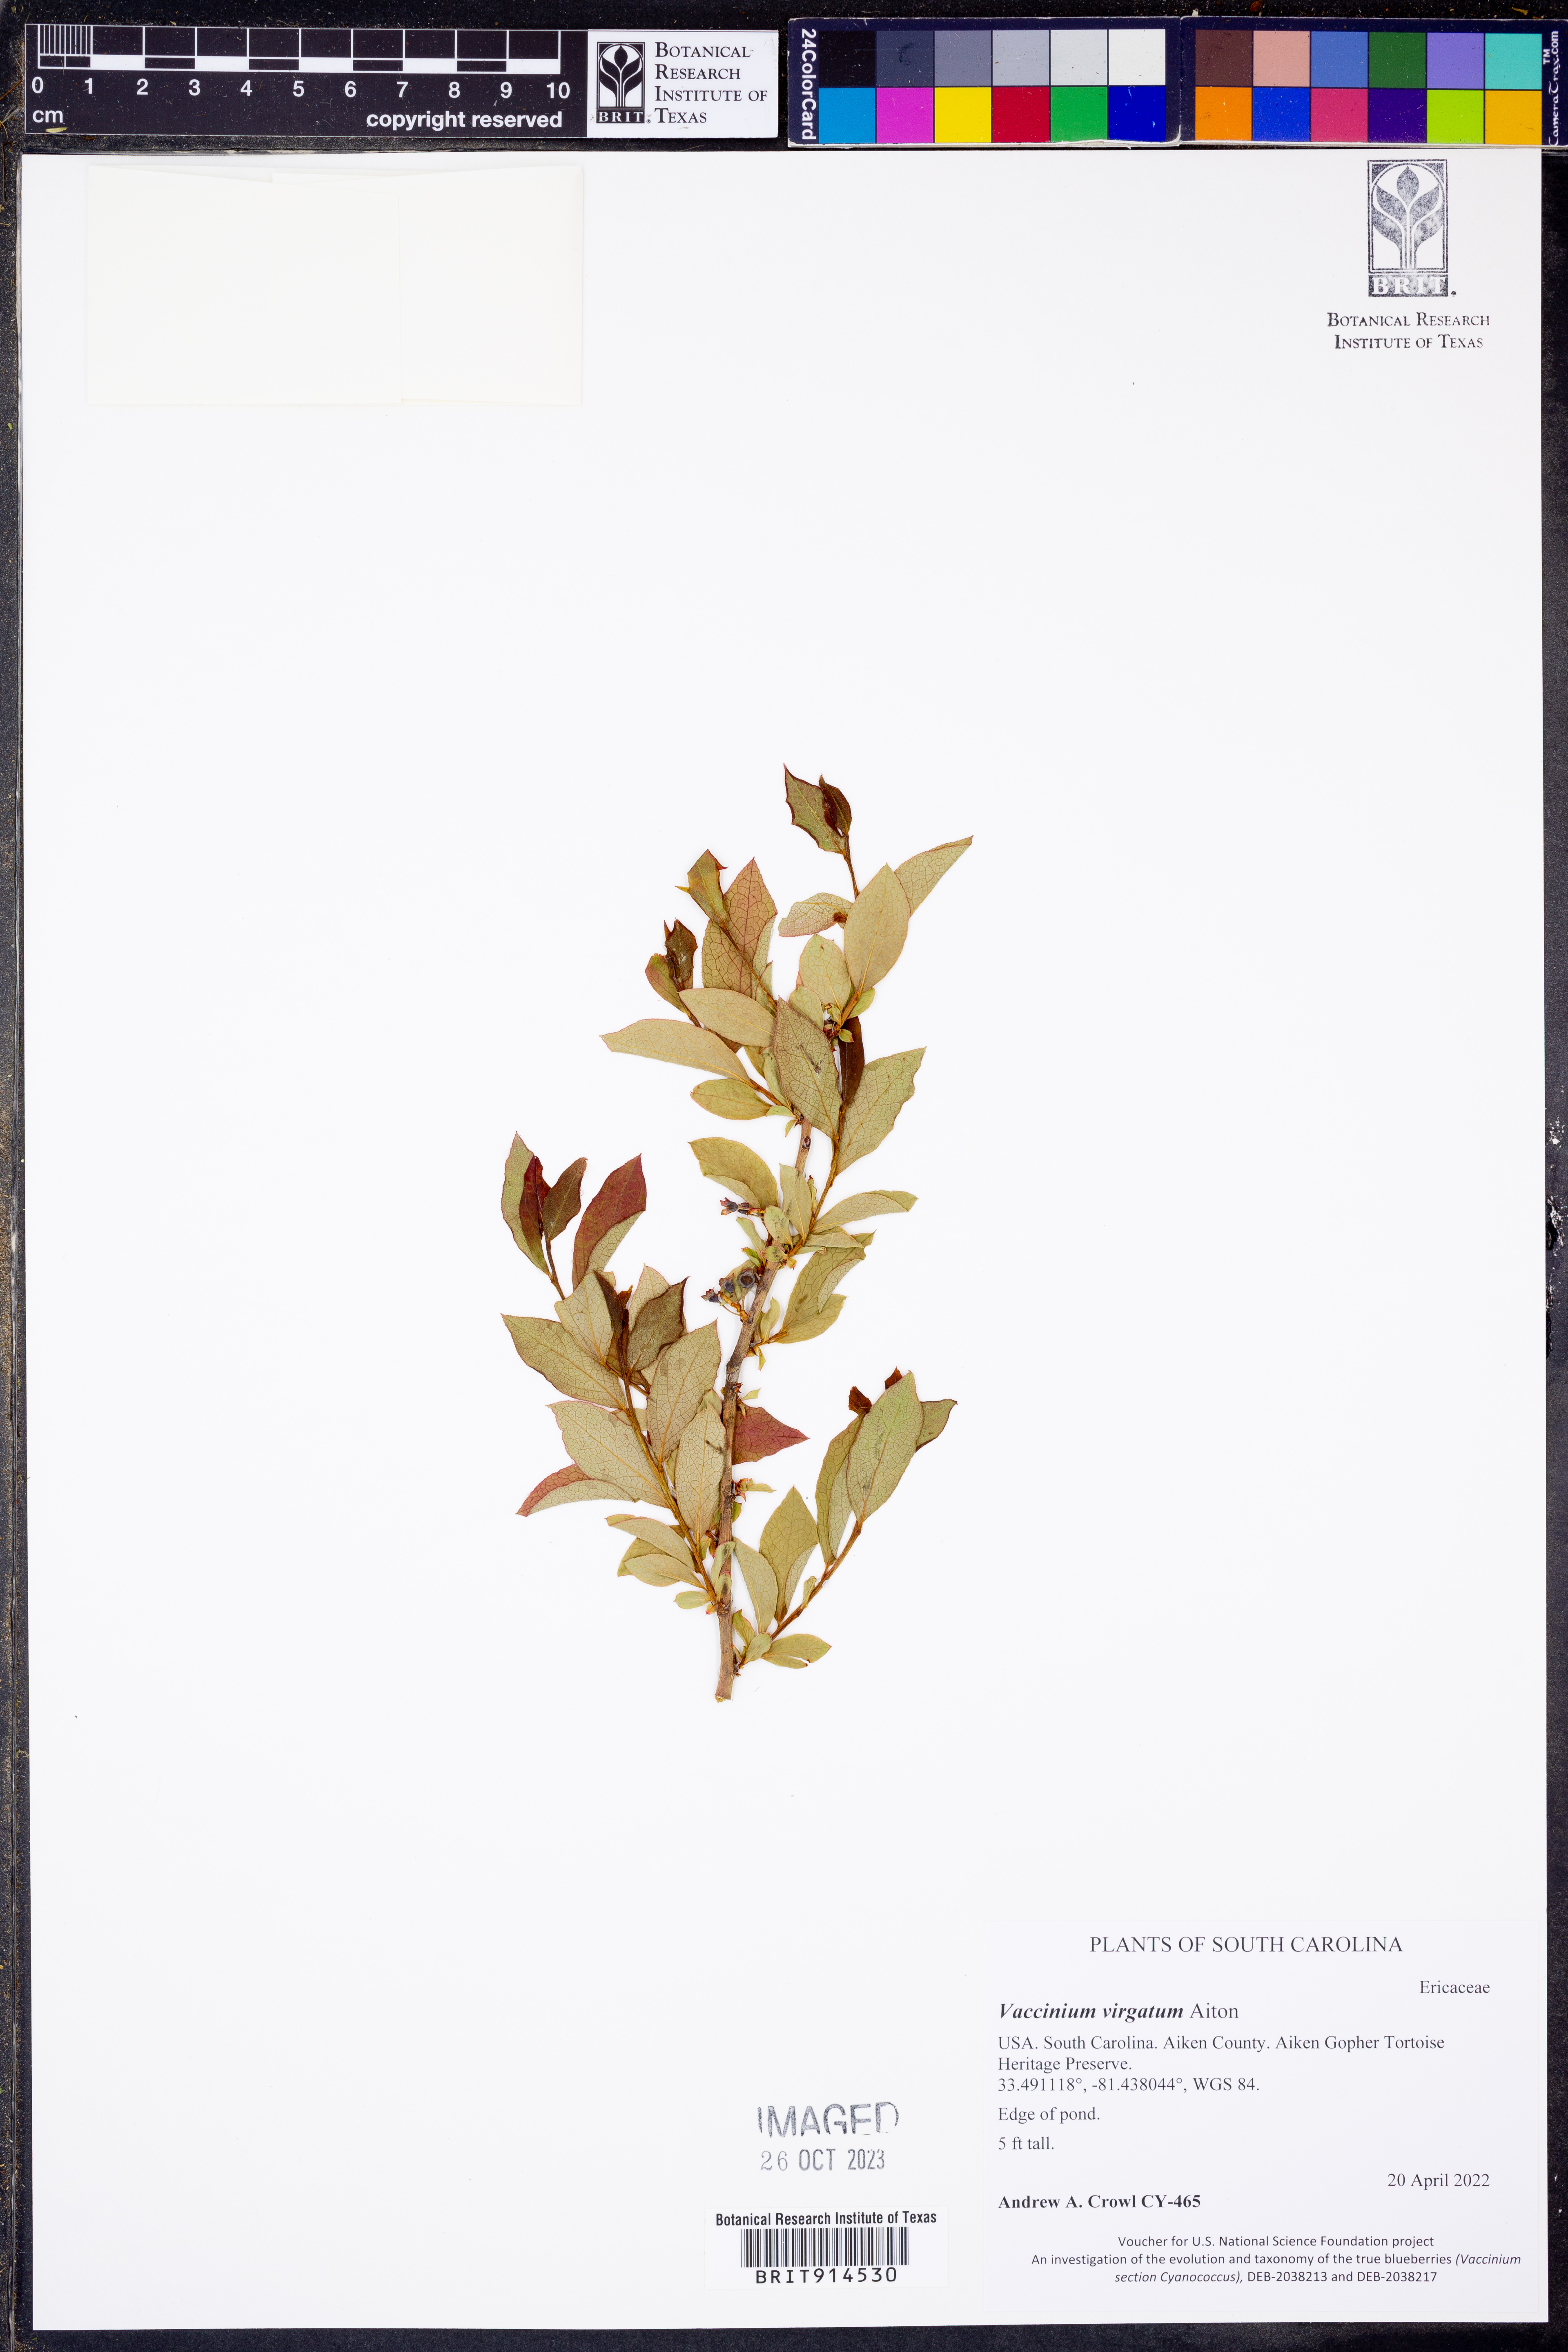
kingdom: Plantae
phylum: Tracheophyta
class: Magnoliopsida
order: Ericales
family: Ericaceae
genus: Vaccinium
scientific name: Vaccinium corymbosum
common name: Blueberry
